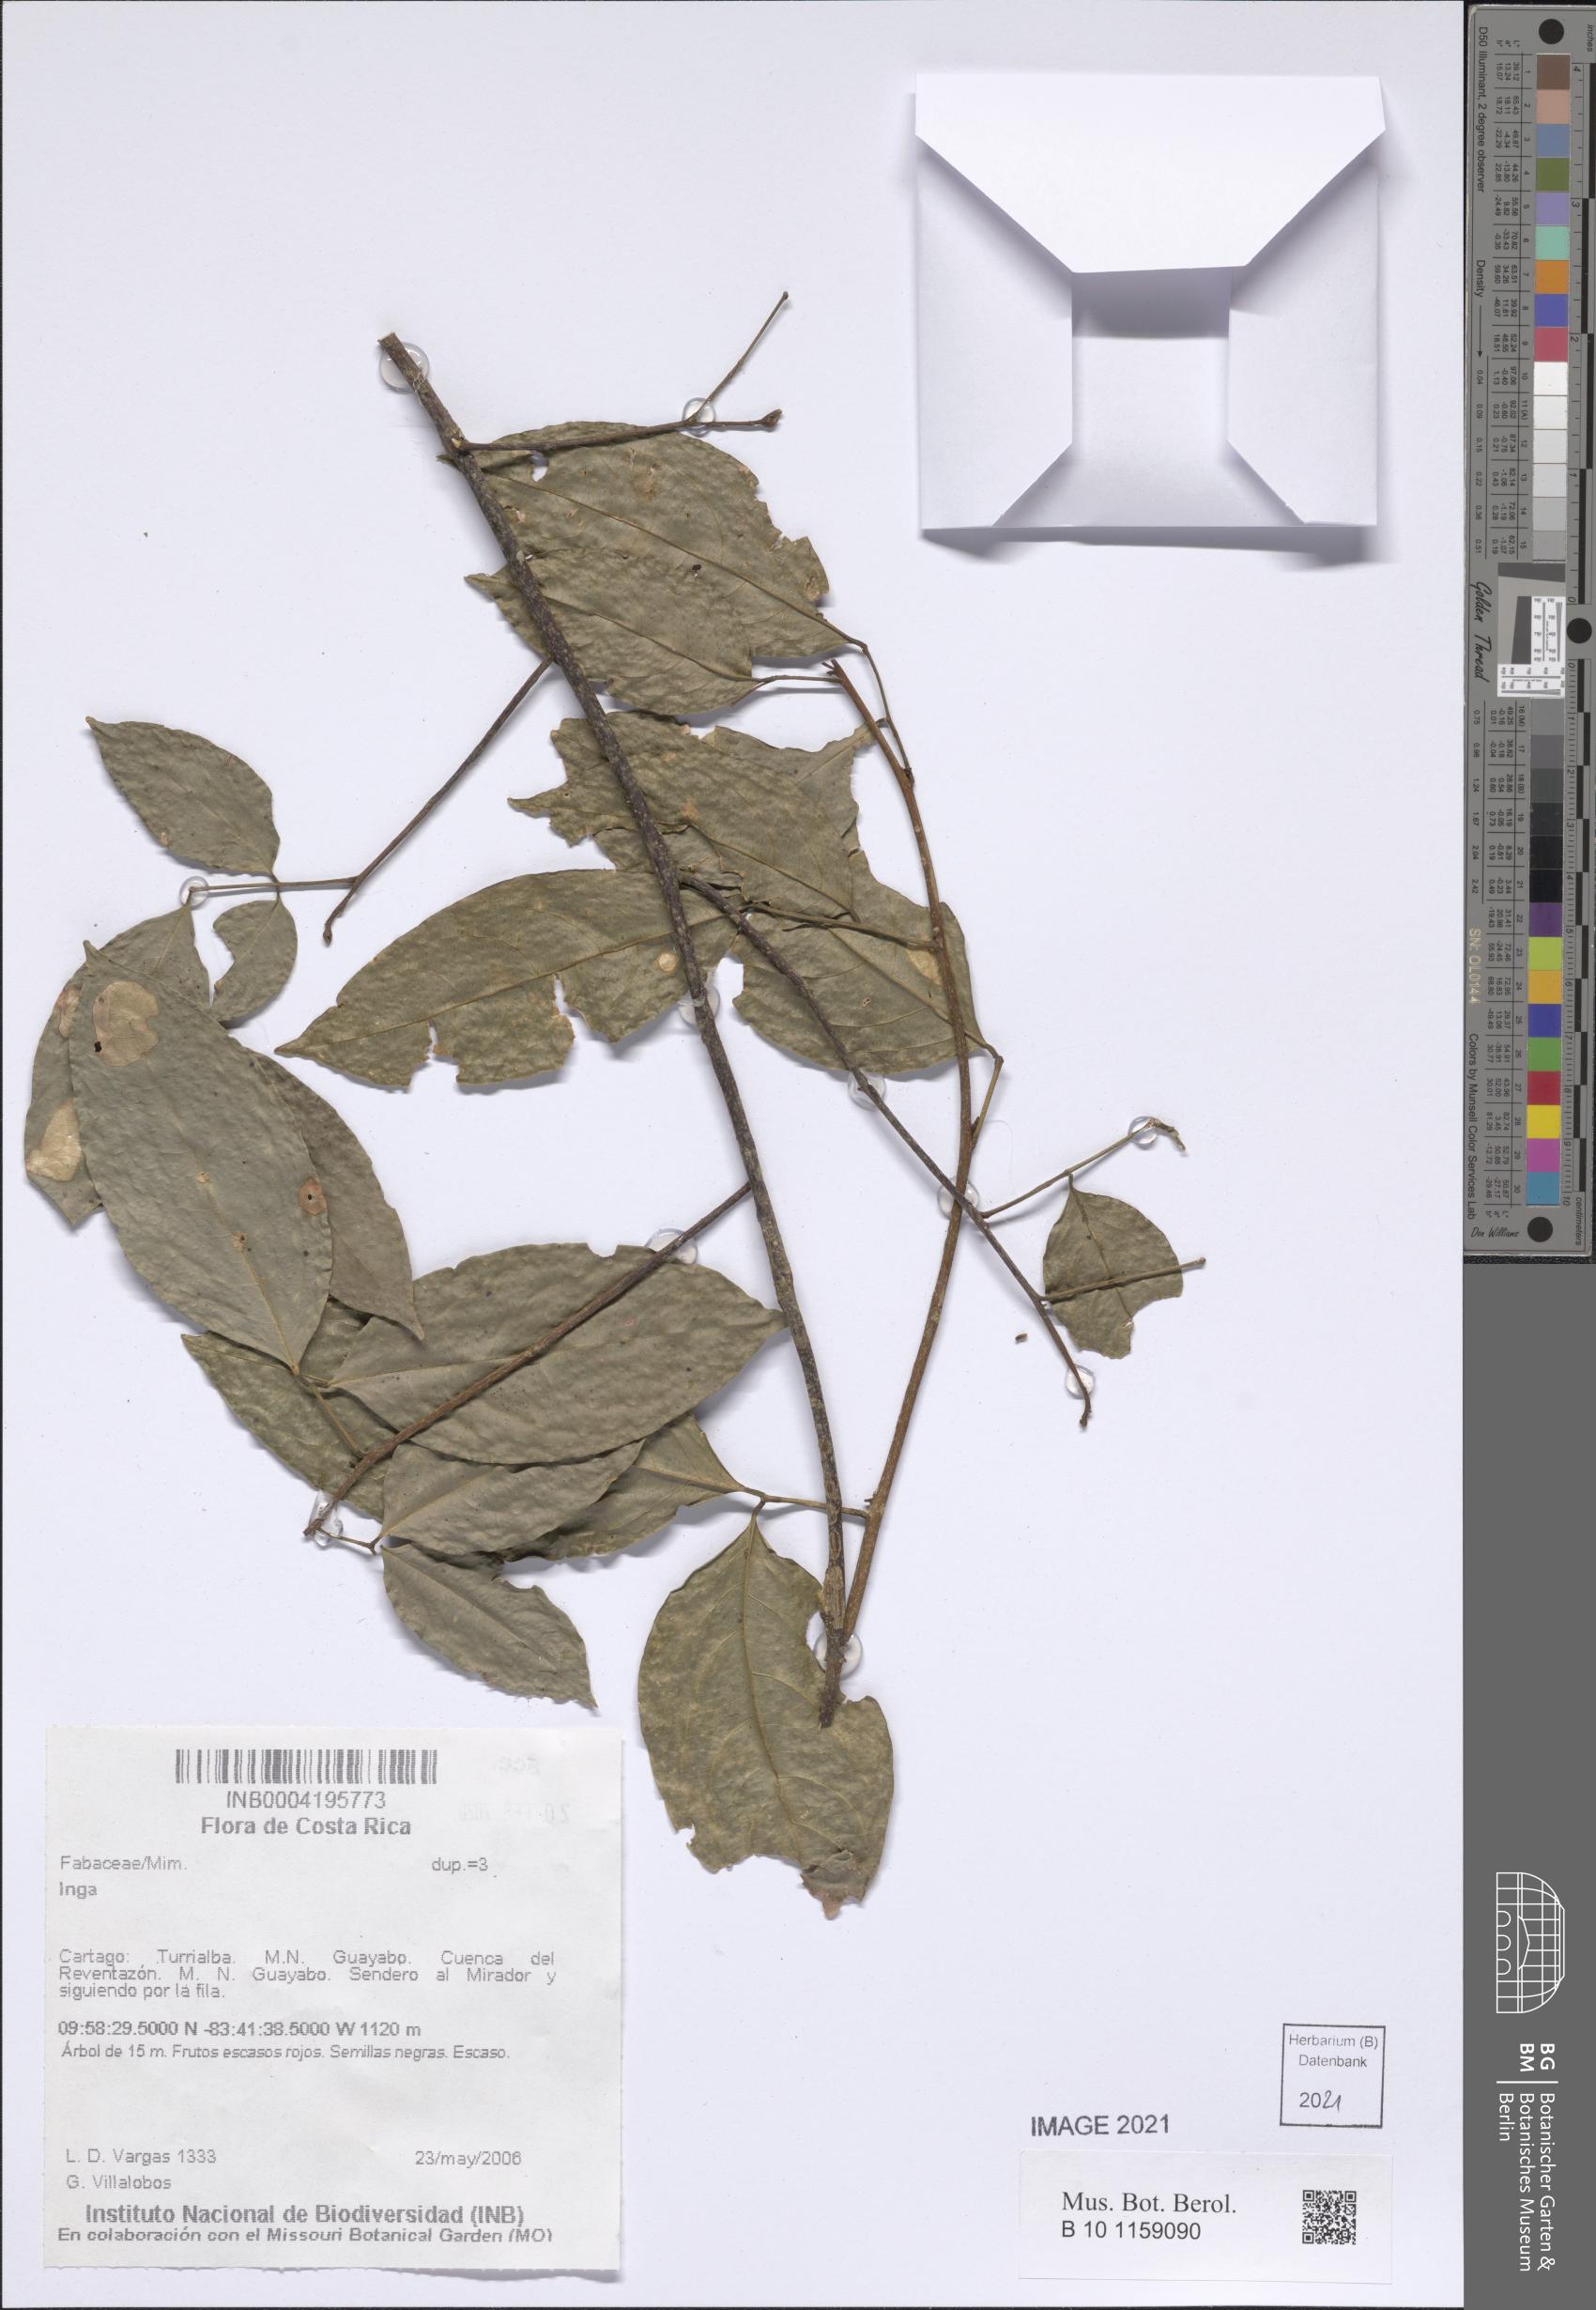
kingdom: Plantae
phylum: Tracheophyta
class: Magnoliopsida
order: Fabales
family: Fabaceae
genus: Inga
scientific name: Inga
